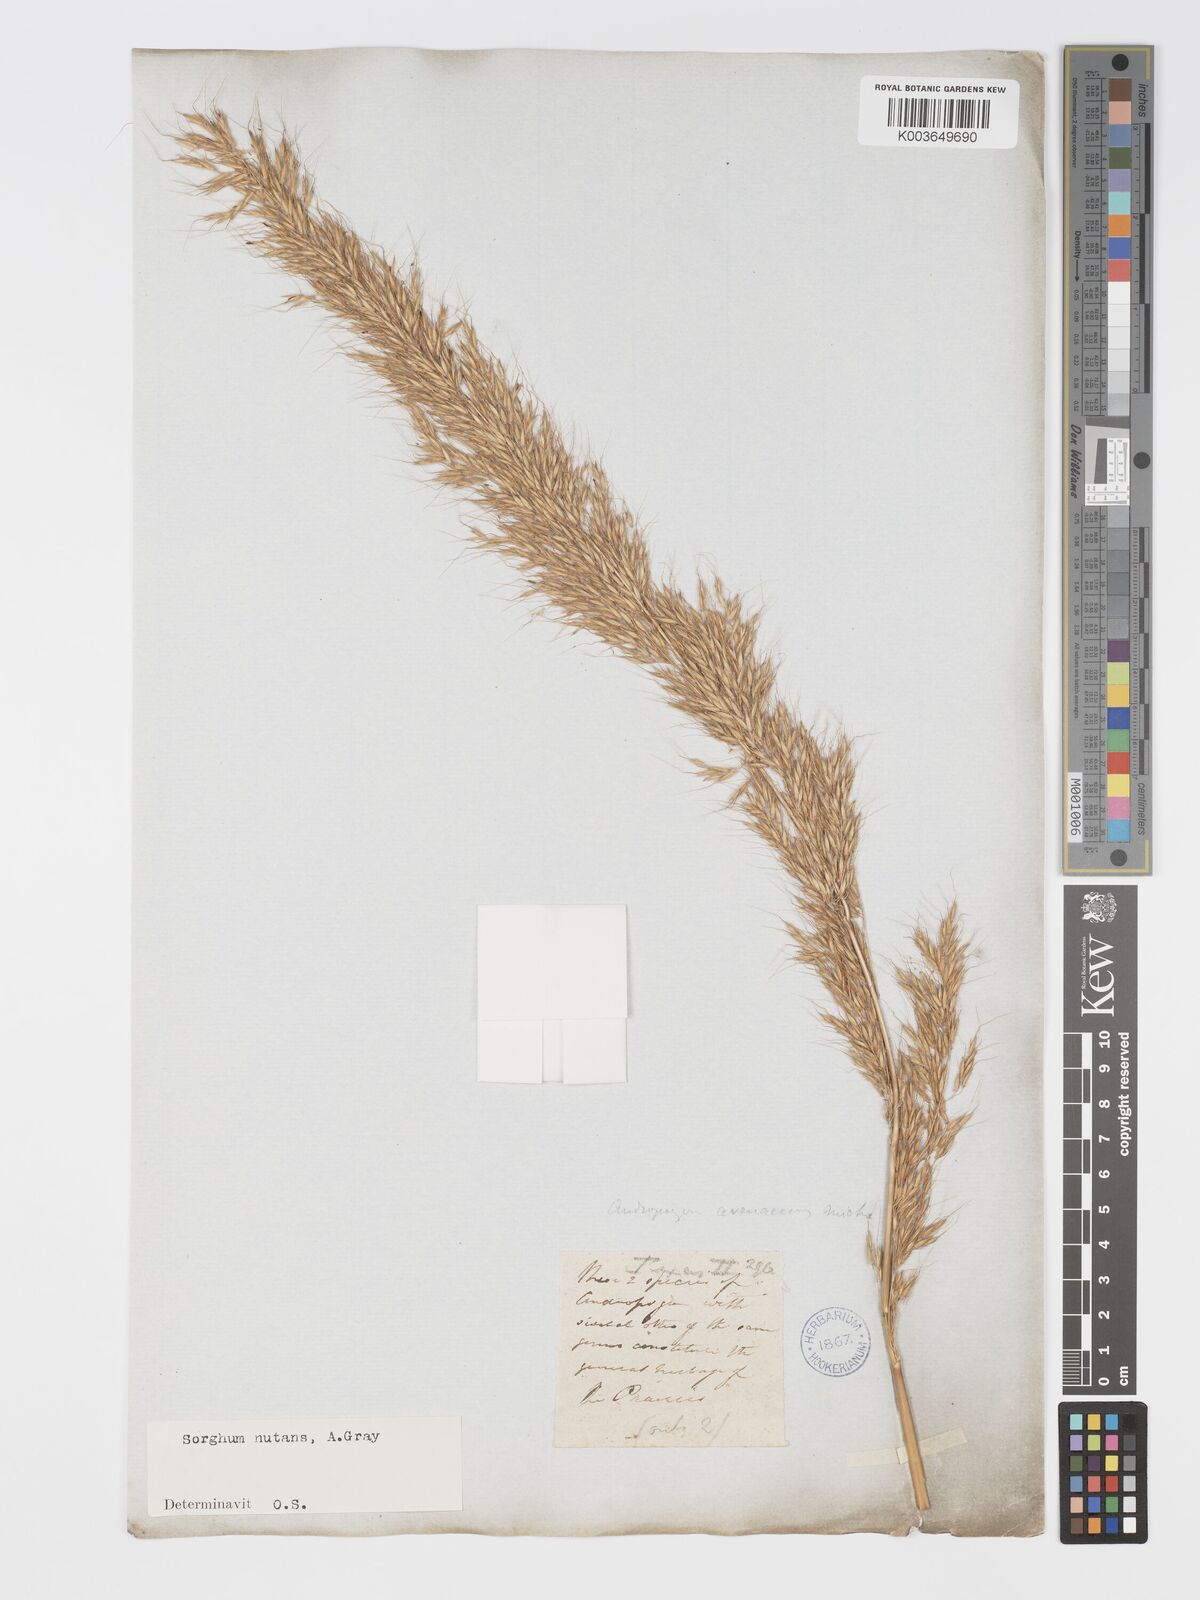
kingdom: Plantae
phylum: Tracheophyta
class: Liliopsida
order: Poales
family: Poaceae
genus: Sorghastrum
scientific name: Sorghastrum nutans
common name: Indian grass
